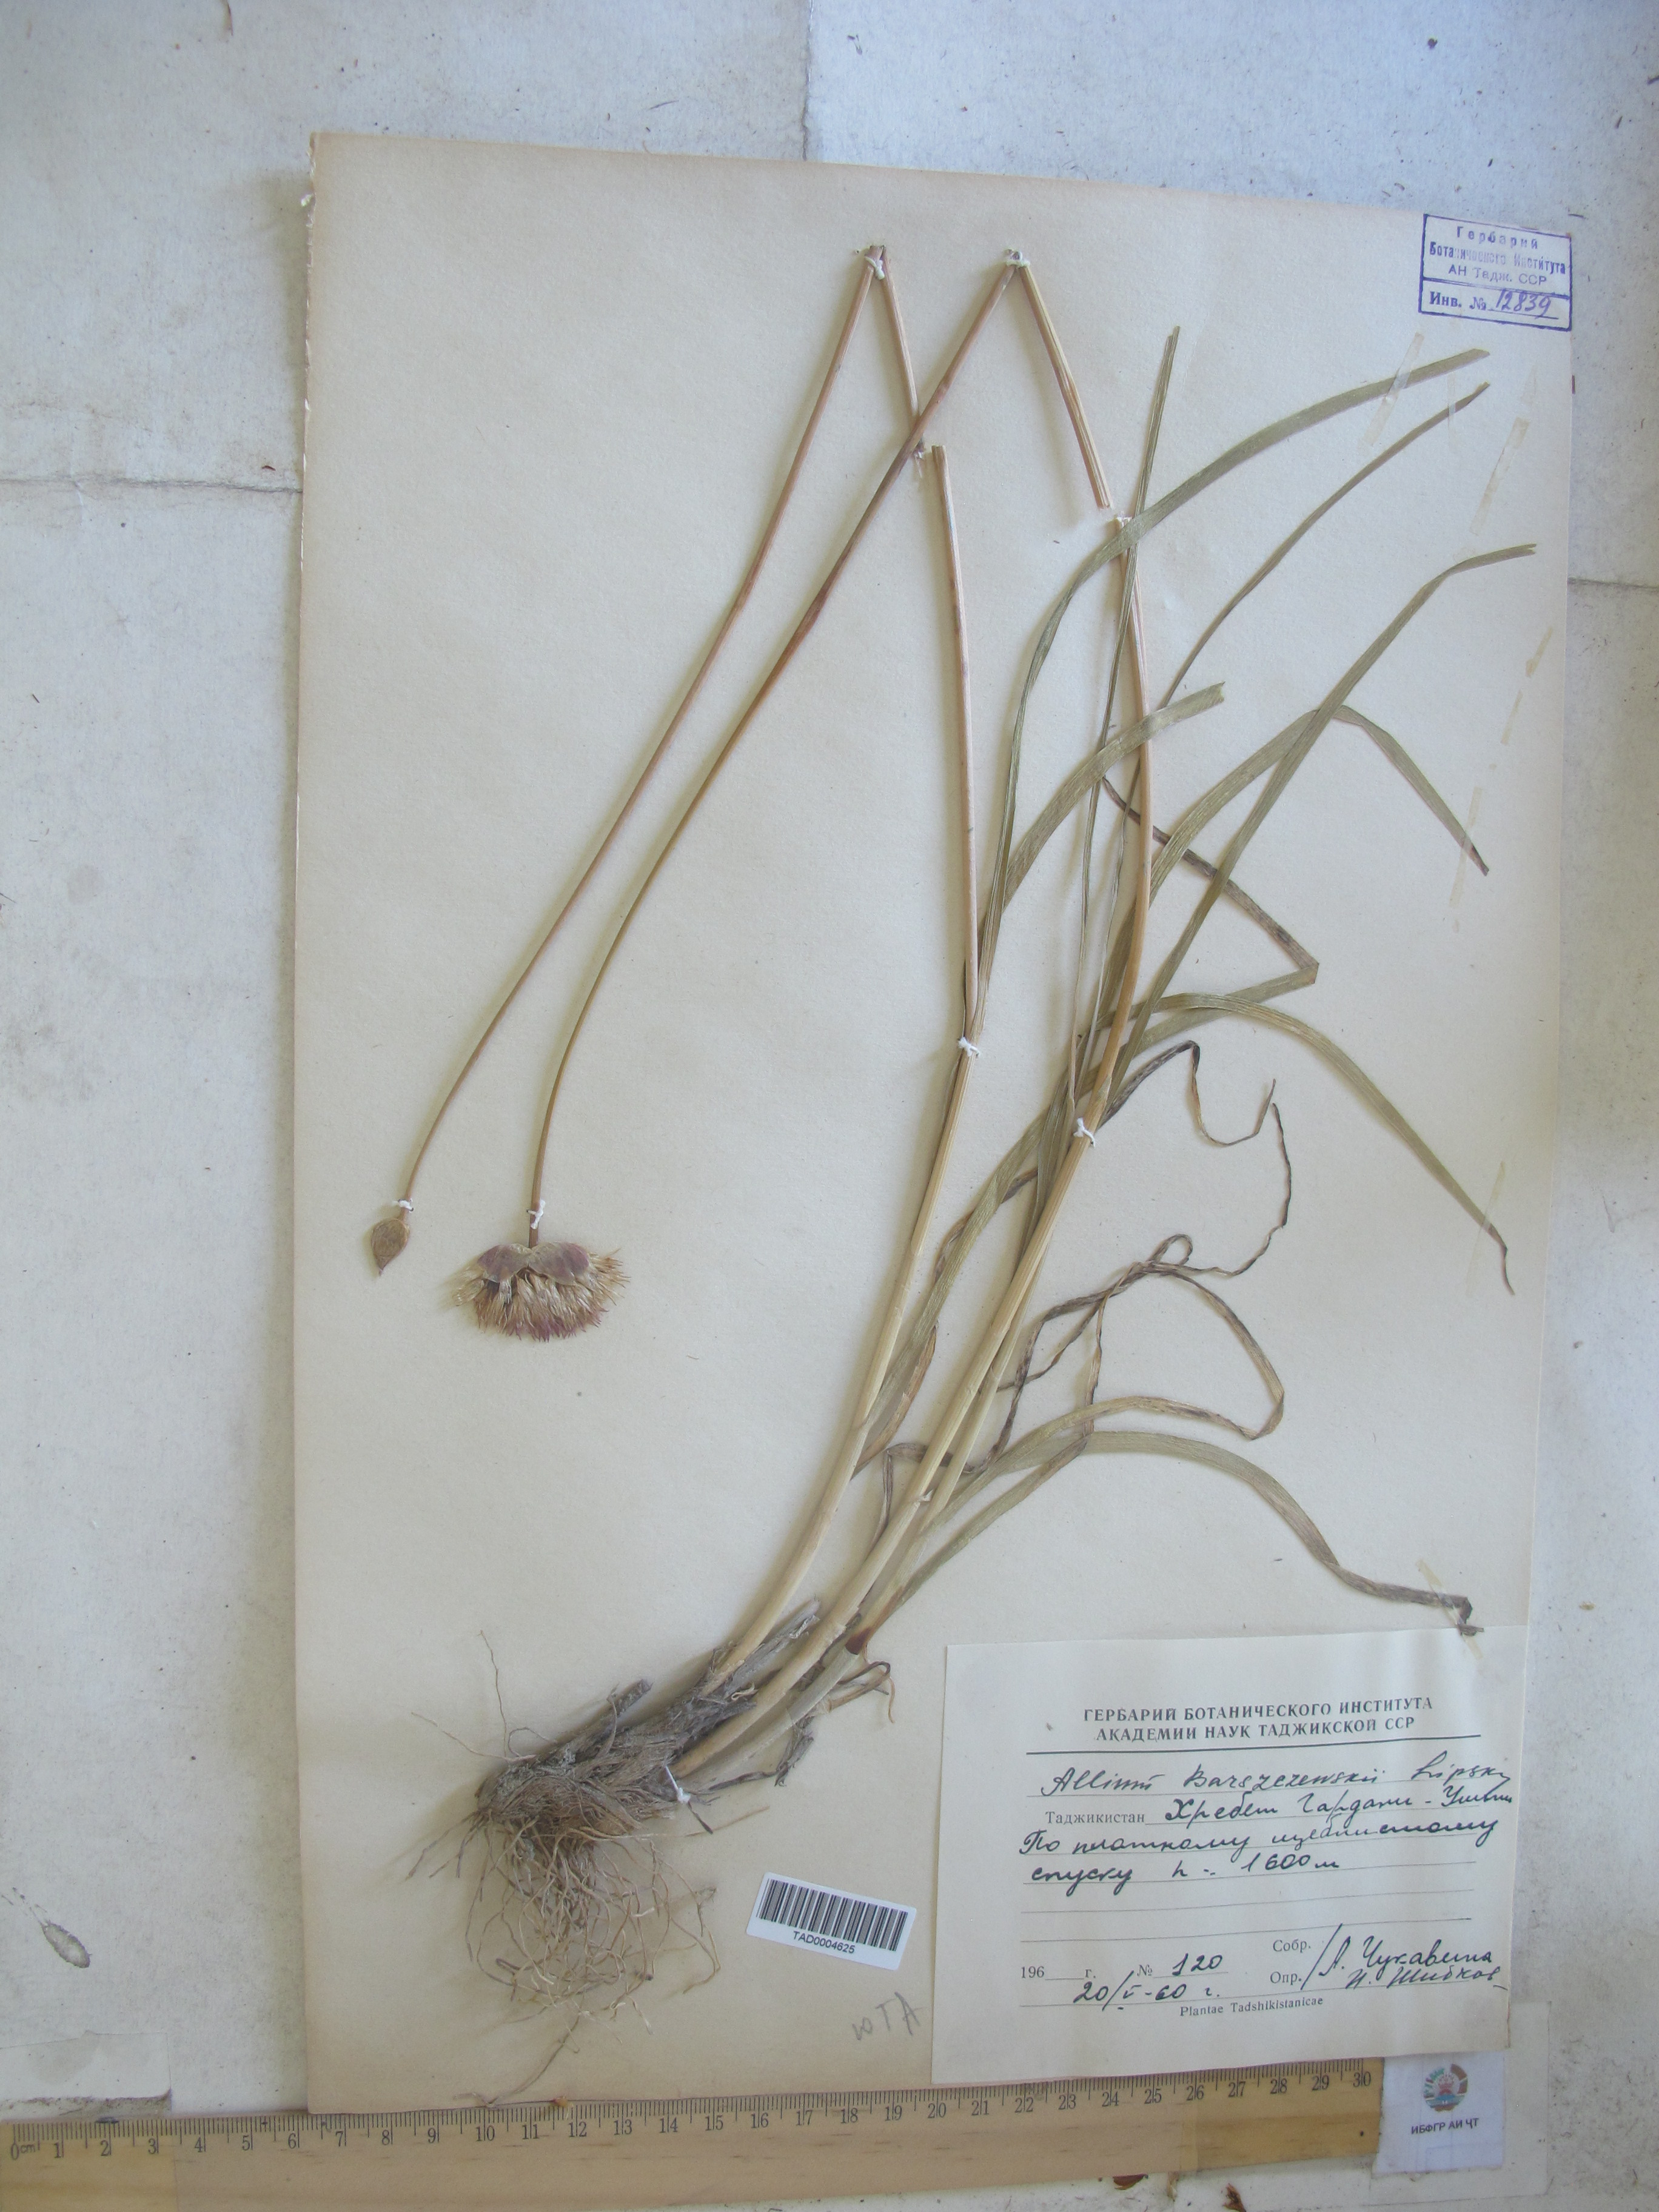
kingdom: Plantae
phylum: Tracheophyta
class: Liliopsida
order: Asparagales
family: Amaryllidaceae
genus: Allium
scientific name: Allium barsczewskii
